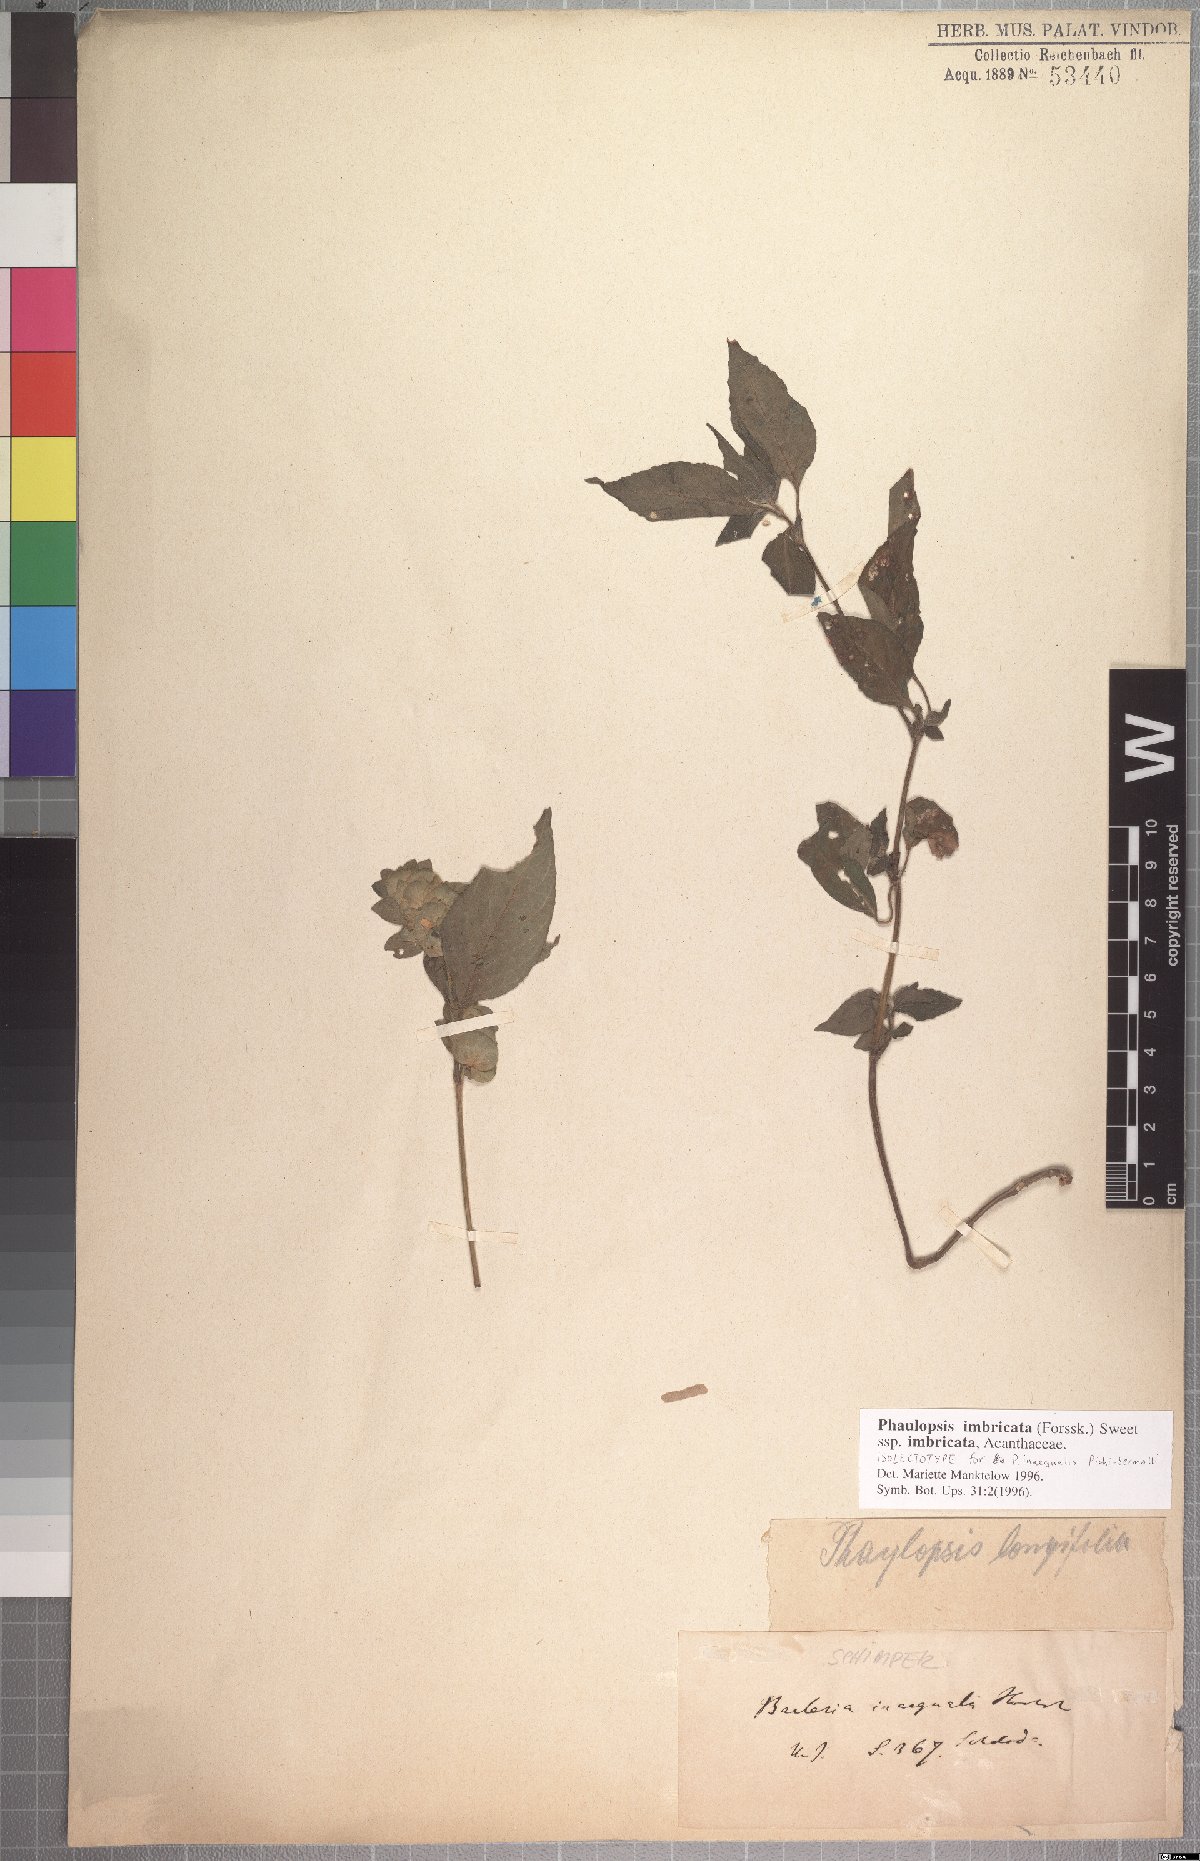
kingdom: Plantae
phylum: Tracheophyta
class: Magnoliopsida
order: Lamiales
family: Acanthaceae
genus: Phaulopsis
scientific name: Phaulopsis imbricata
